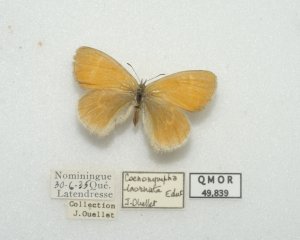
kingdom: Animalia
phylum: Arthropoda
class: Insecta
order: Lepidoptera
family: Nymphalidae
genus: Coenonympha
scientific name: Coenonympha tullia
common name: Large Heath
